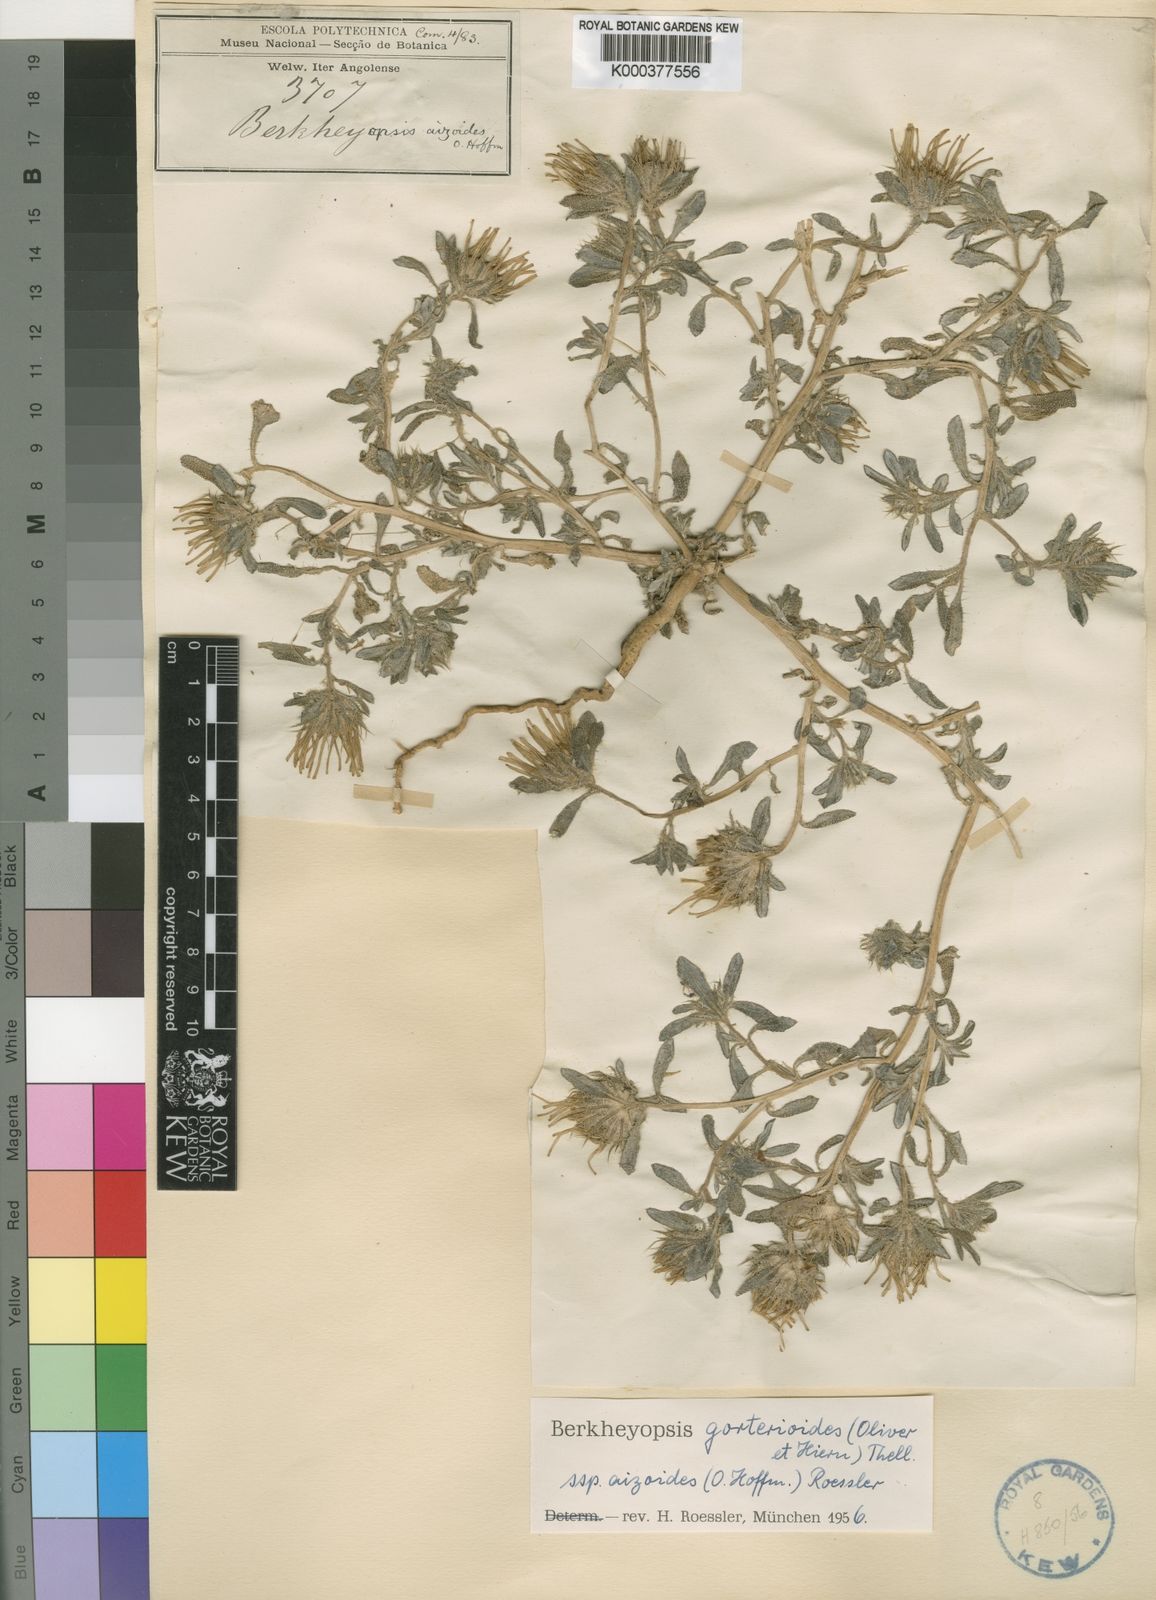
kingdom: Plantae
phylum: Tracheophyta
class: Magnoliopsida
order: Asterales
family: Asteraceae
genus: Roessleria
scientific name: Roessleria gorterioides
